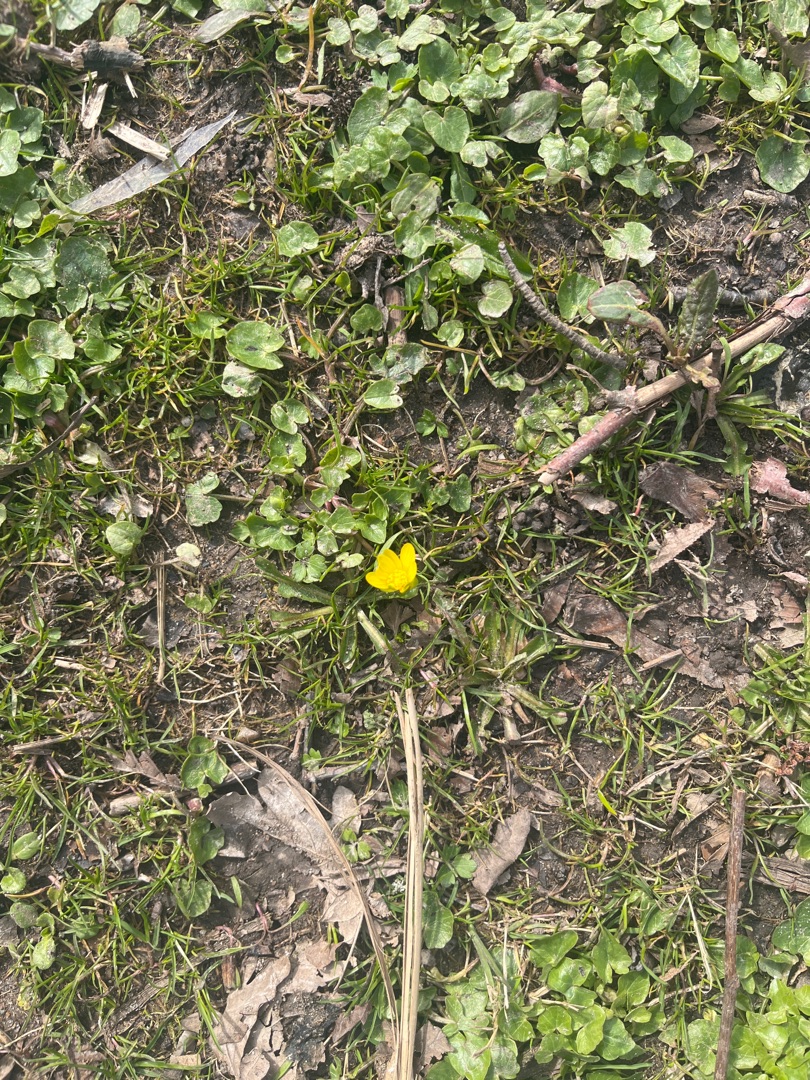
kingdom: Plantae
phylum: Tracheophyta
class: Magnoliopsida
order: Ranunculales
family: Ranunculaceae
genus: Ficaria
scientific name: Ficaria verna
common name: Vorterod
